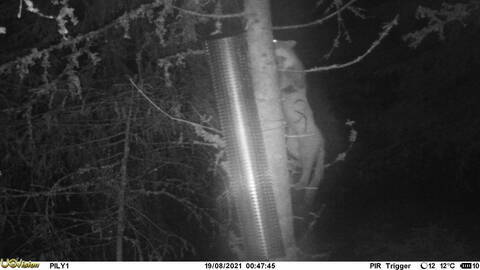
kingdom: Animalia
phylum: Chordata
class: Mammalia
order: Carnivora
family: Mustelidae
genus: Martes
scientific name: Martes martes
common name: European pine marten
